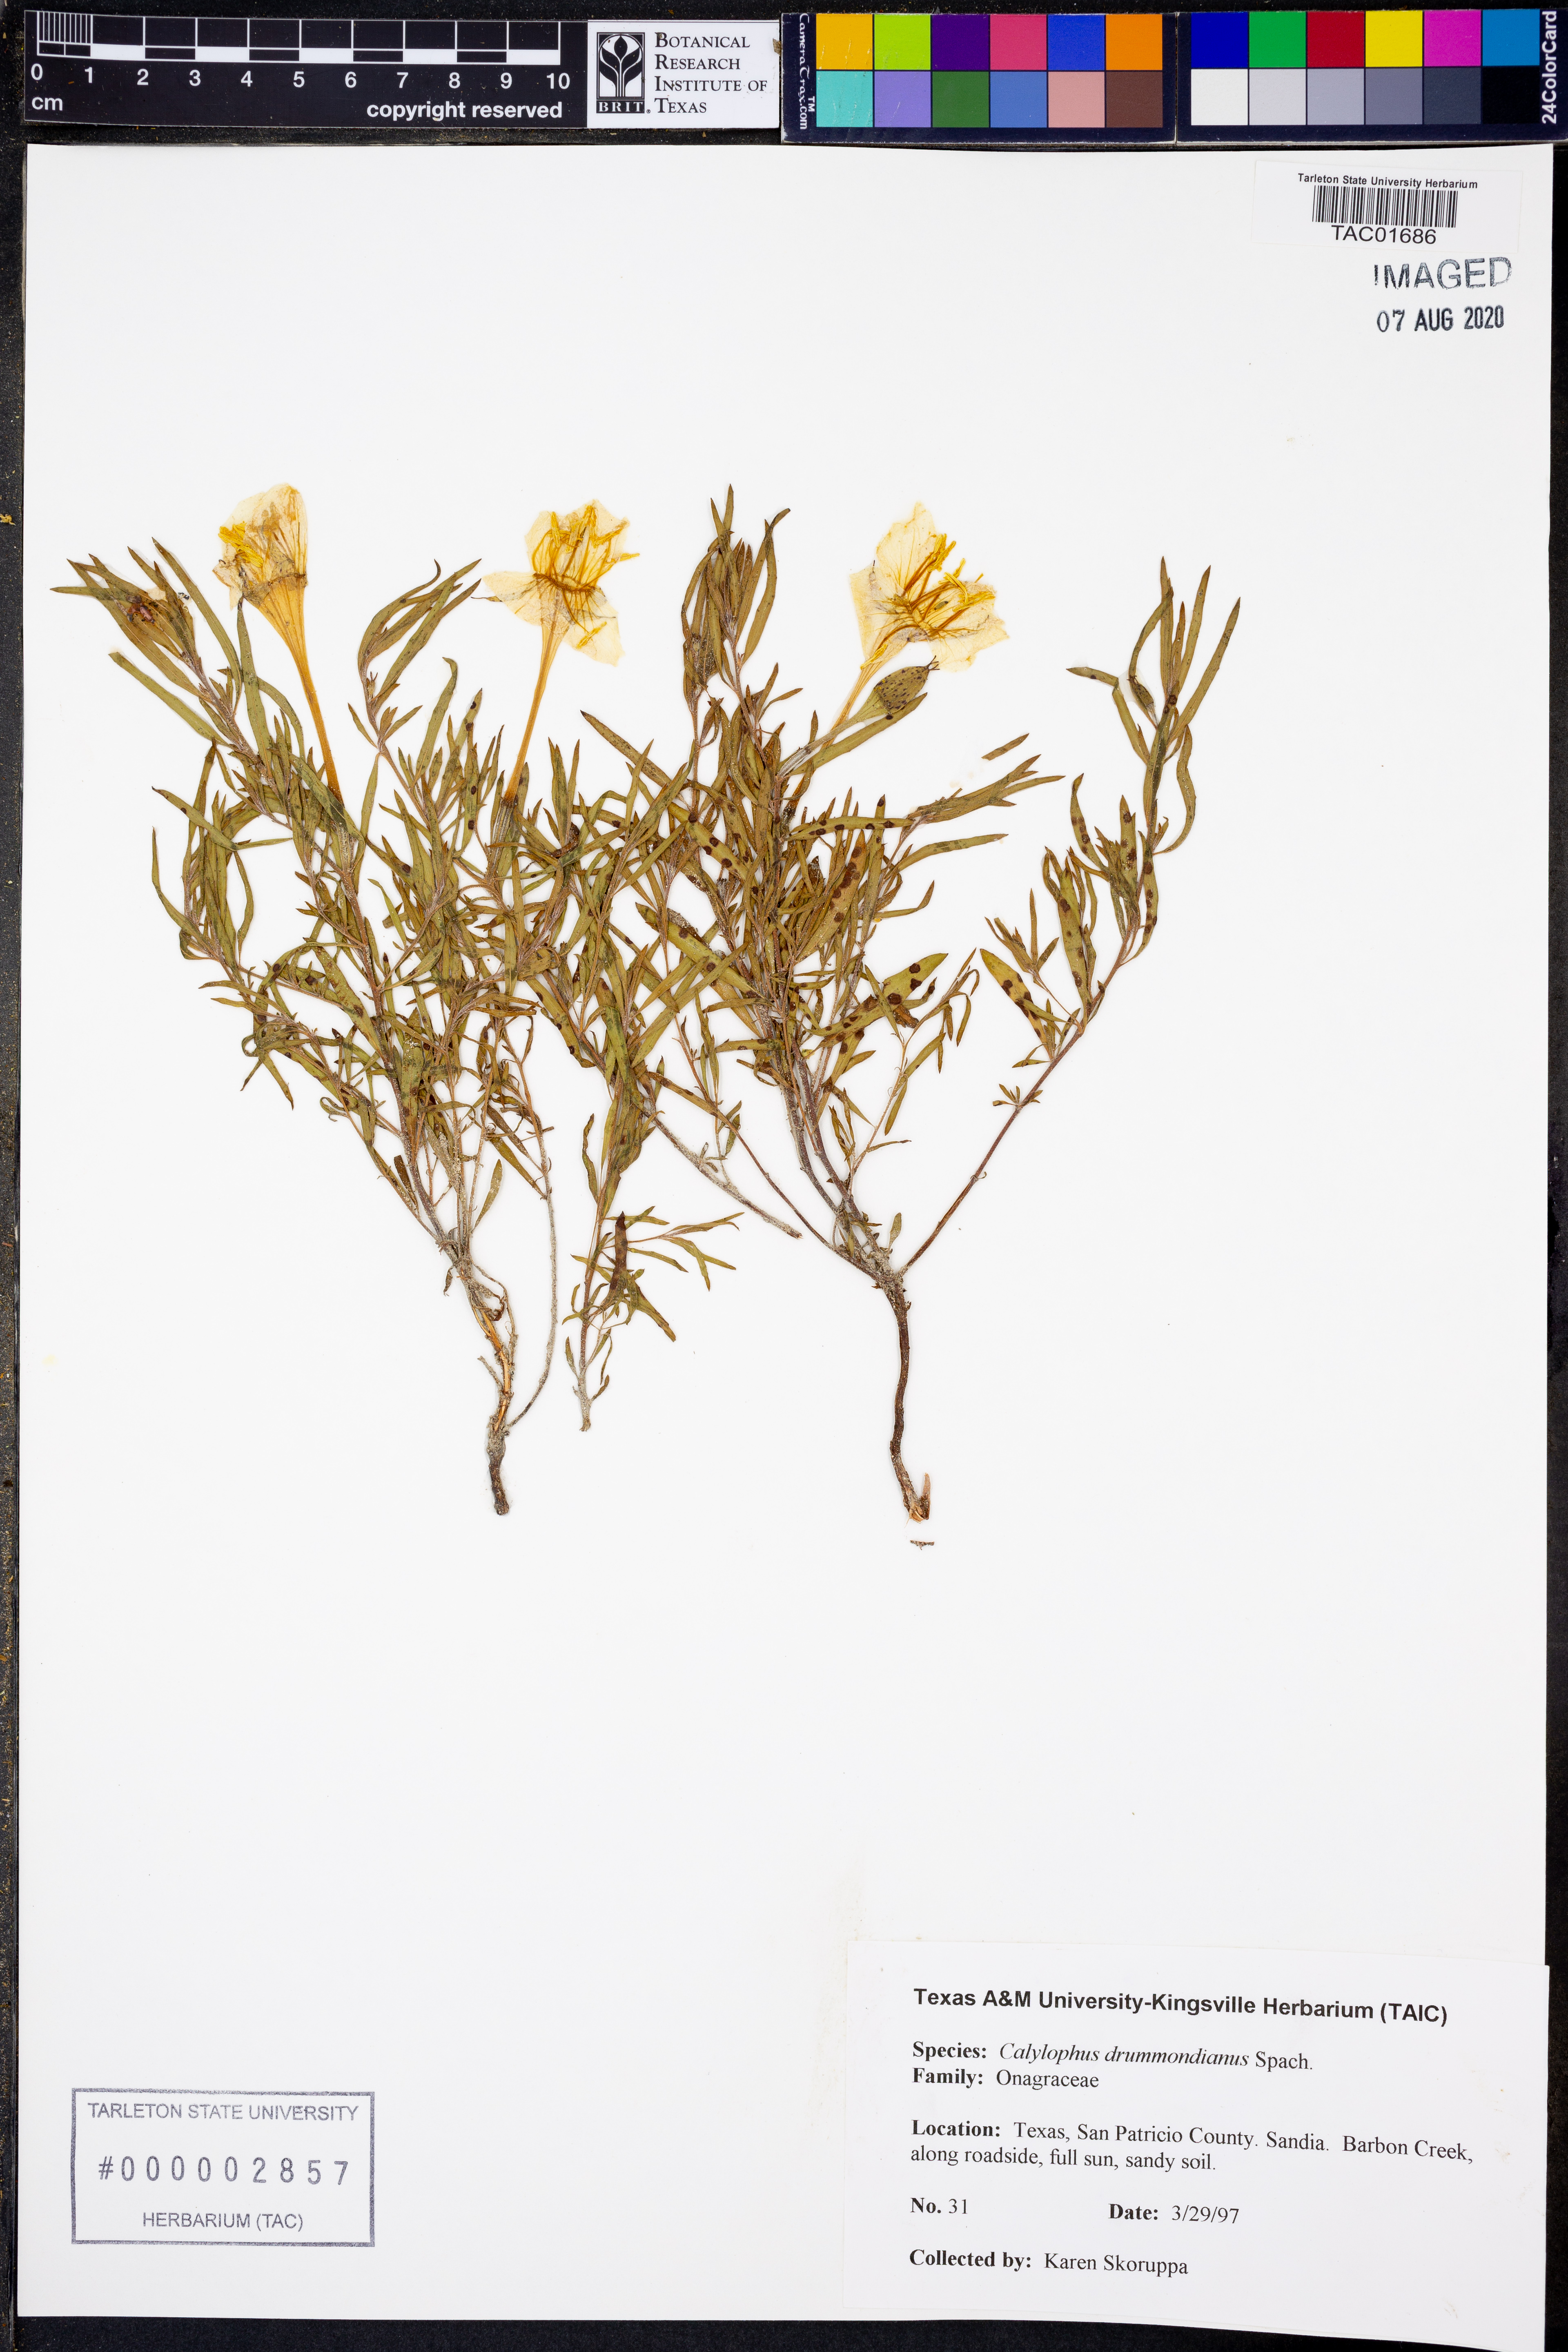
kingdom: Plantae
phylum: Tracheophyta
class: Magnoliopsida
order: Myrtales
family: Onagraceae
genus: Oenothera
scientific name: Oenothera serrulata
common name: Half-shrub calylophus
